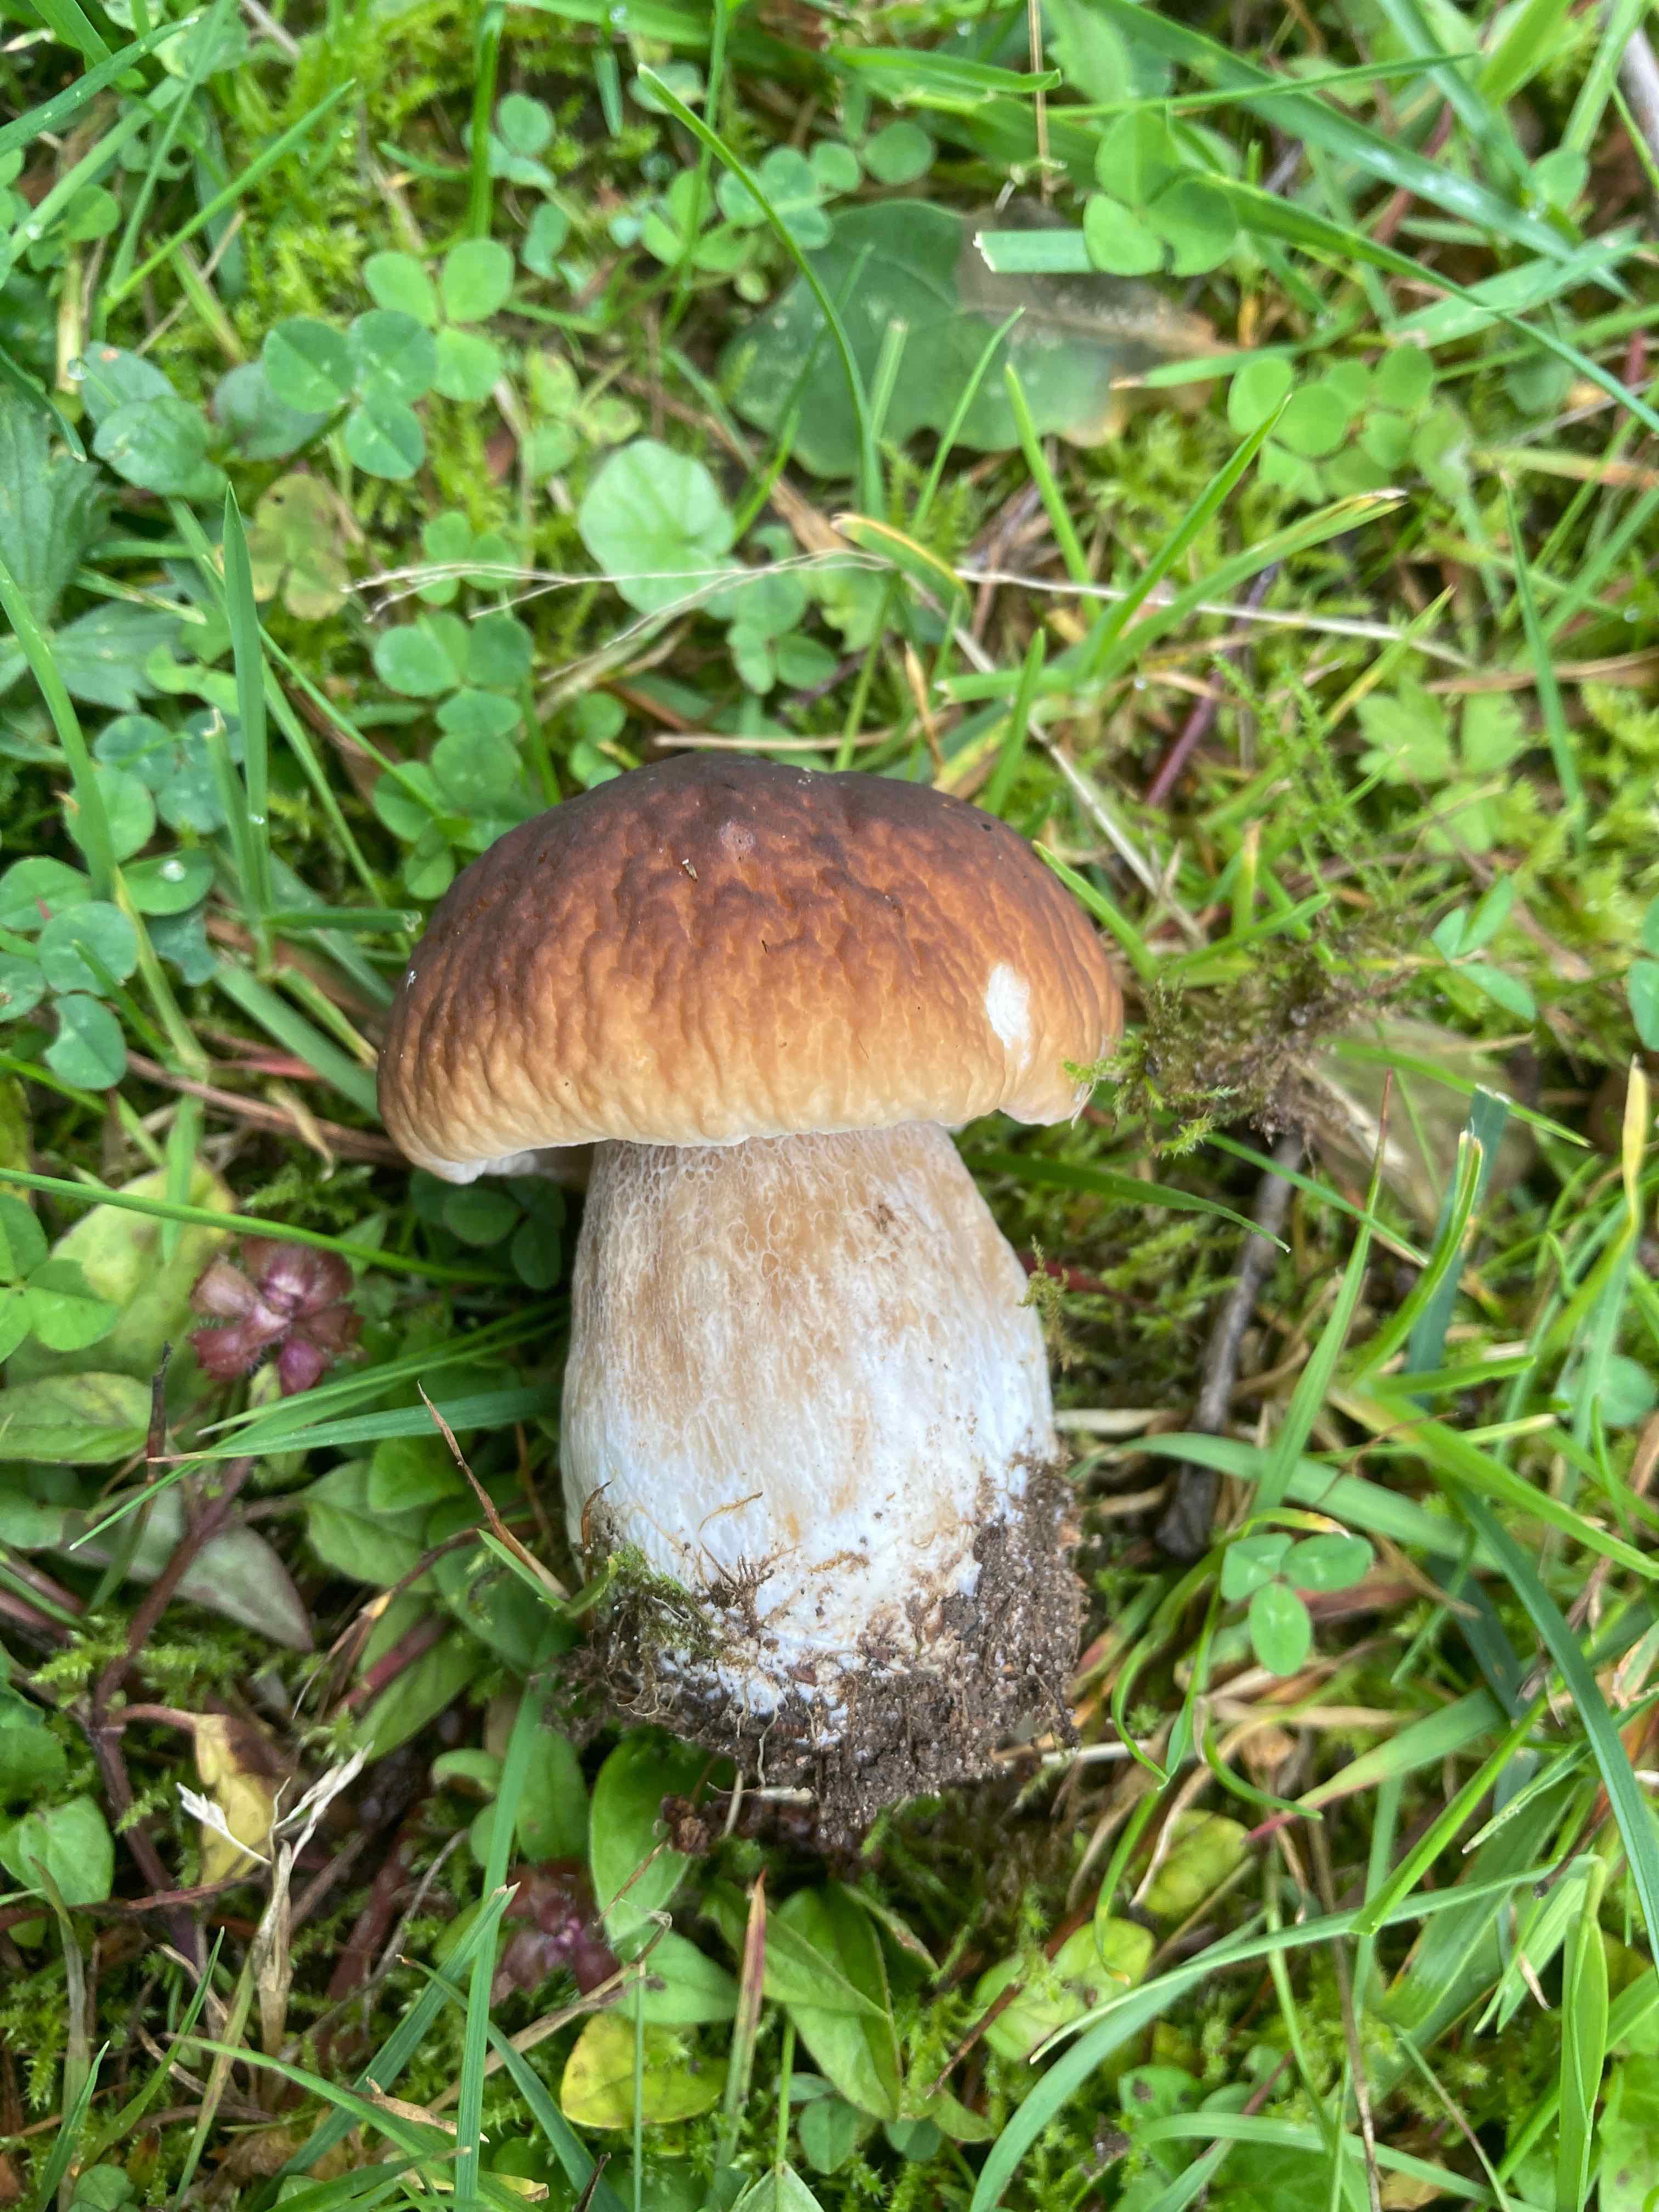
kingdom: Fungi
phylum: Basidiomycota
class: Agaricomycetes
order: Boletales
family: Boletaceae
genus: Boletus
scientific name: Boletus reticulatus
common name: sommer-rørhat
